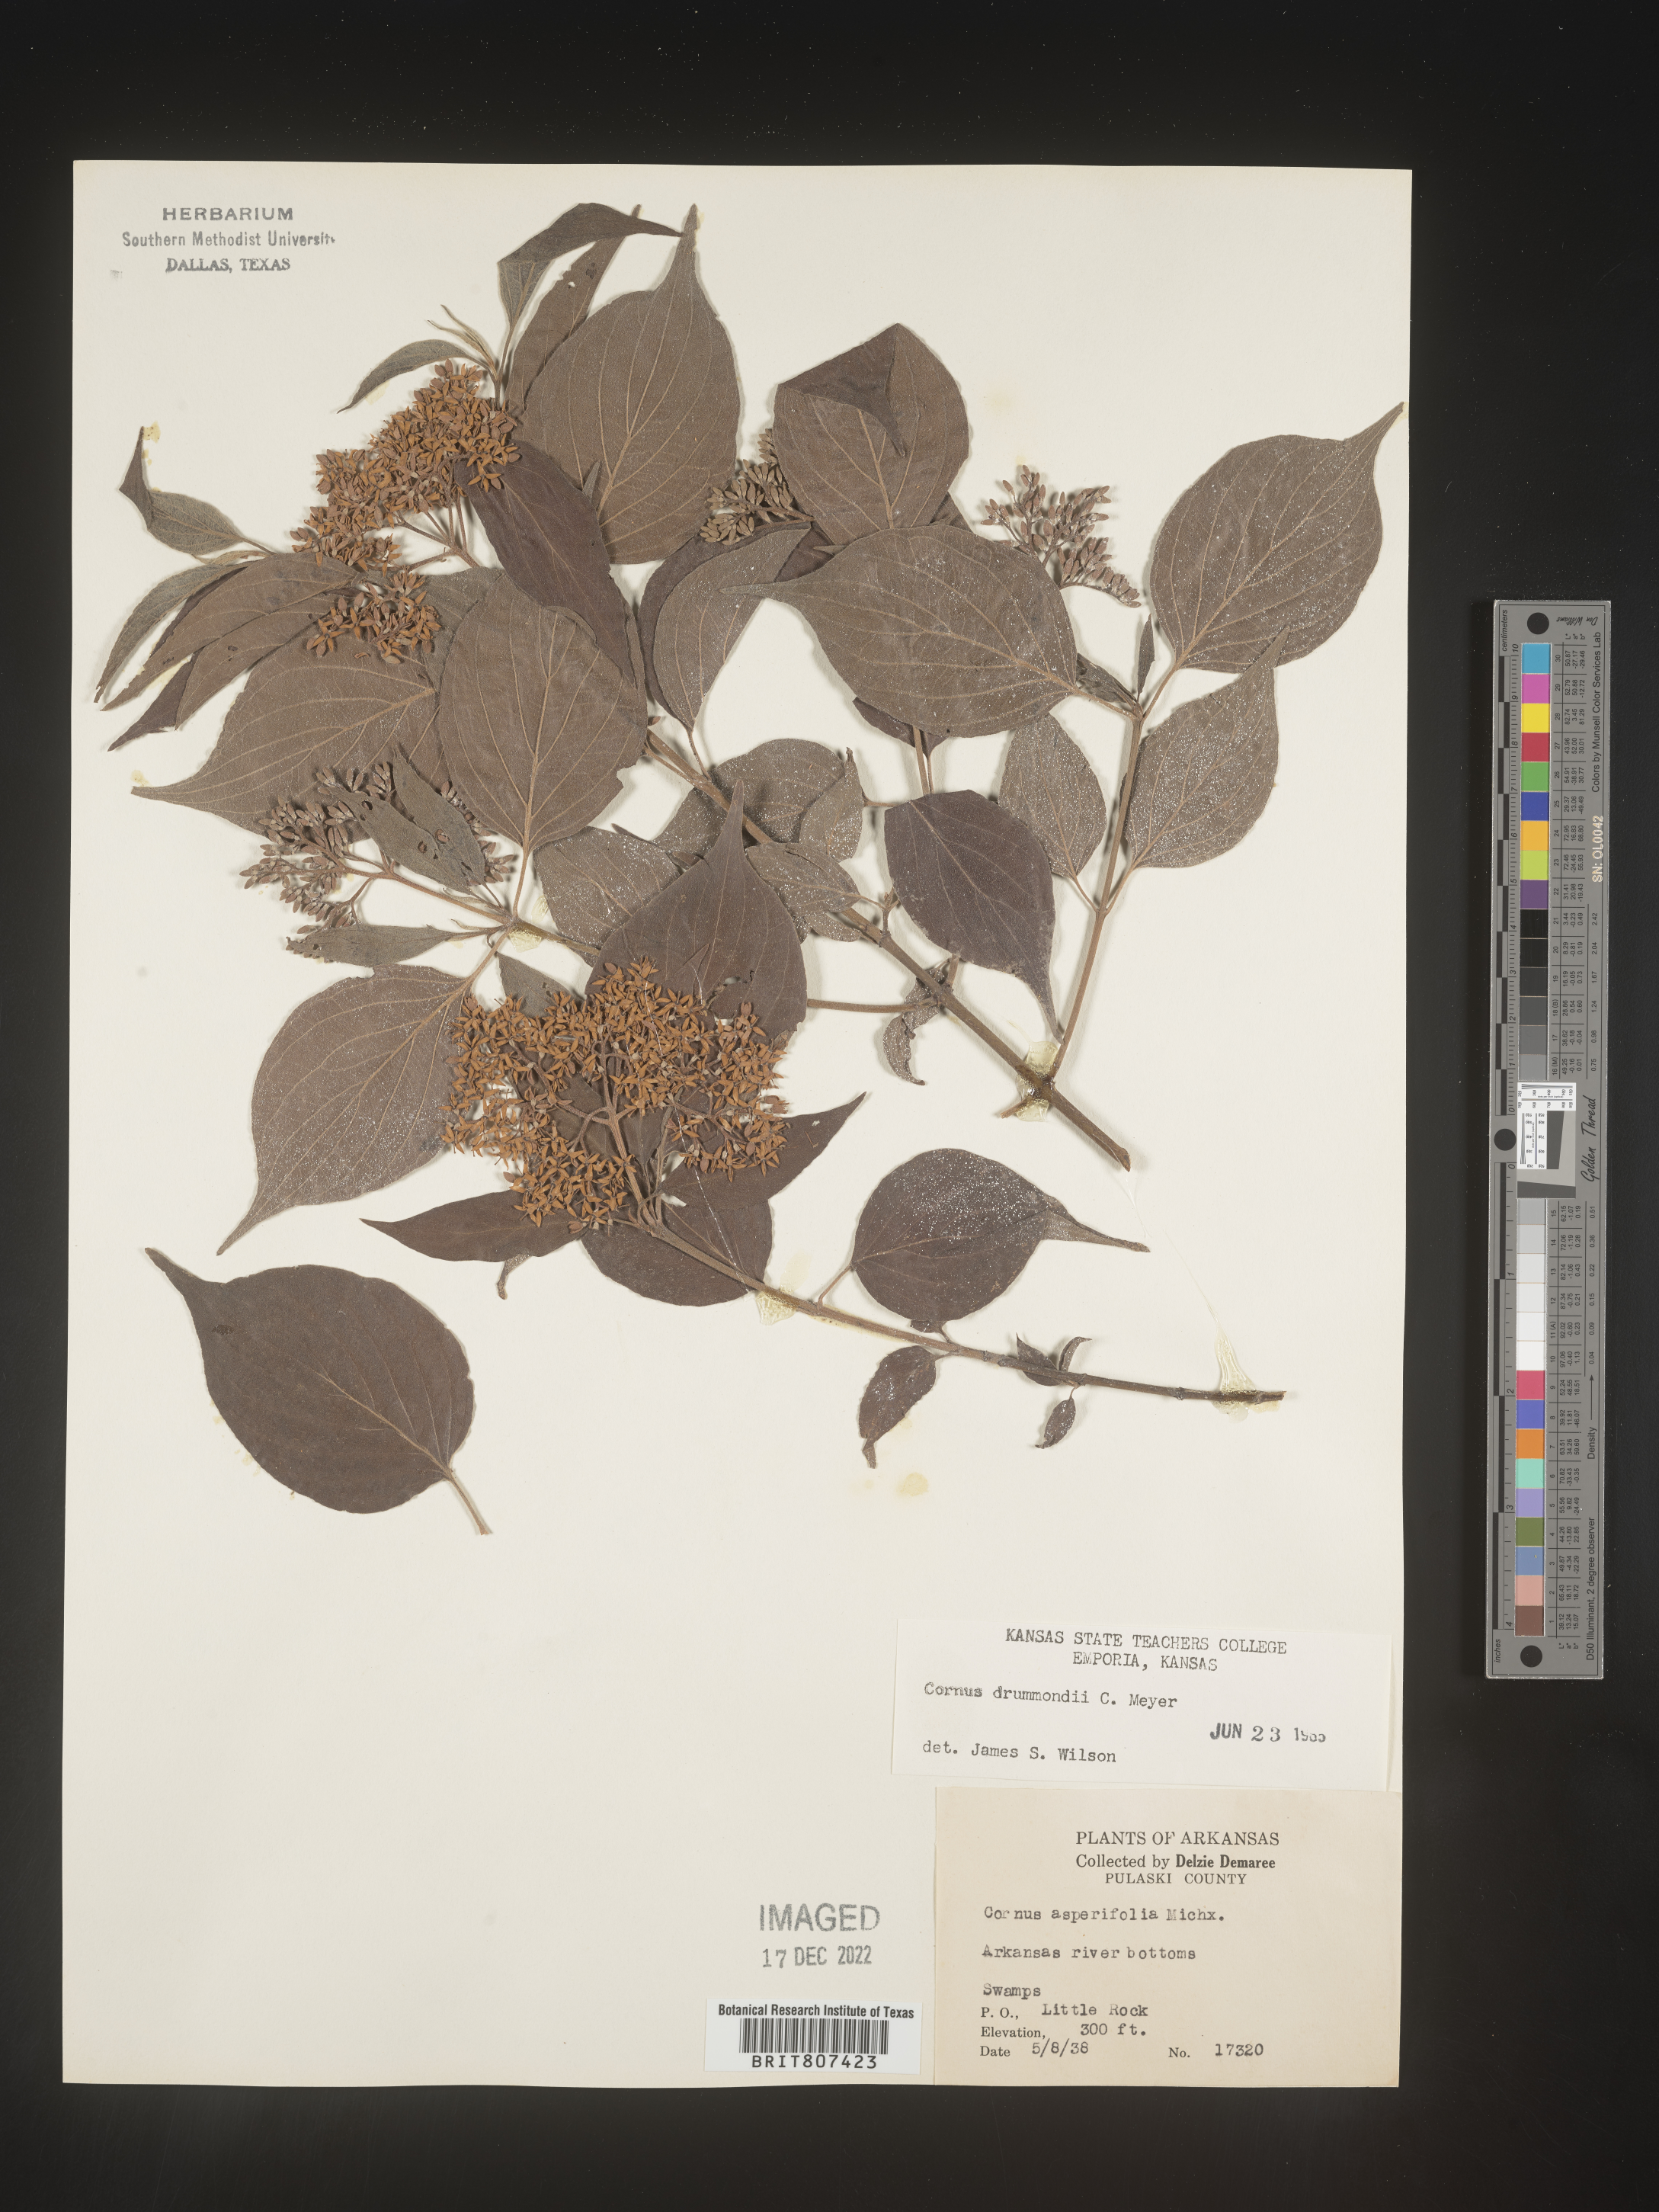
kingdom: Plantae
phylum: Tracheophyta
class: Magnoliopsida
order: Cornales
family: Cornaceae
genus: Cornus
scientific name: Cornus drummondii
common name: Rough-leaf dogwood
